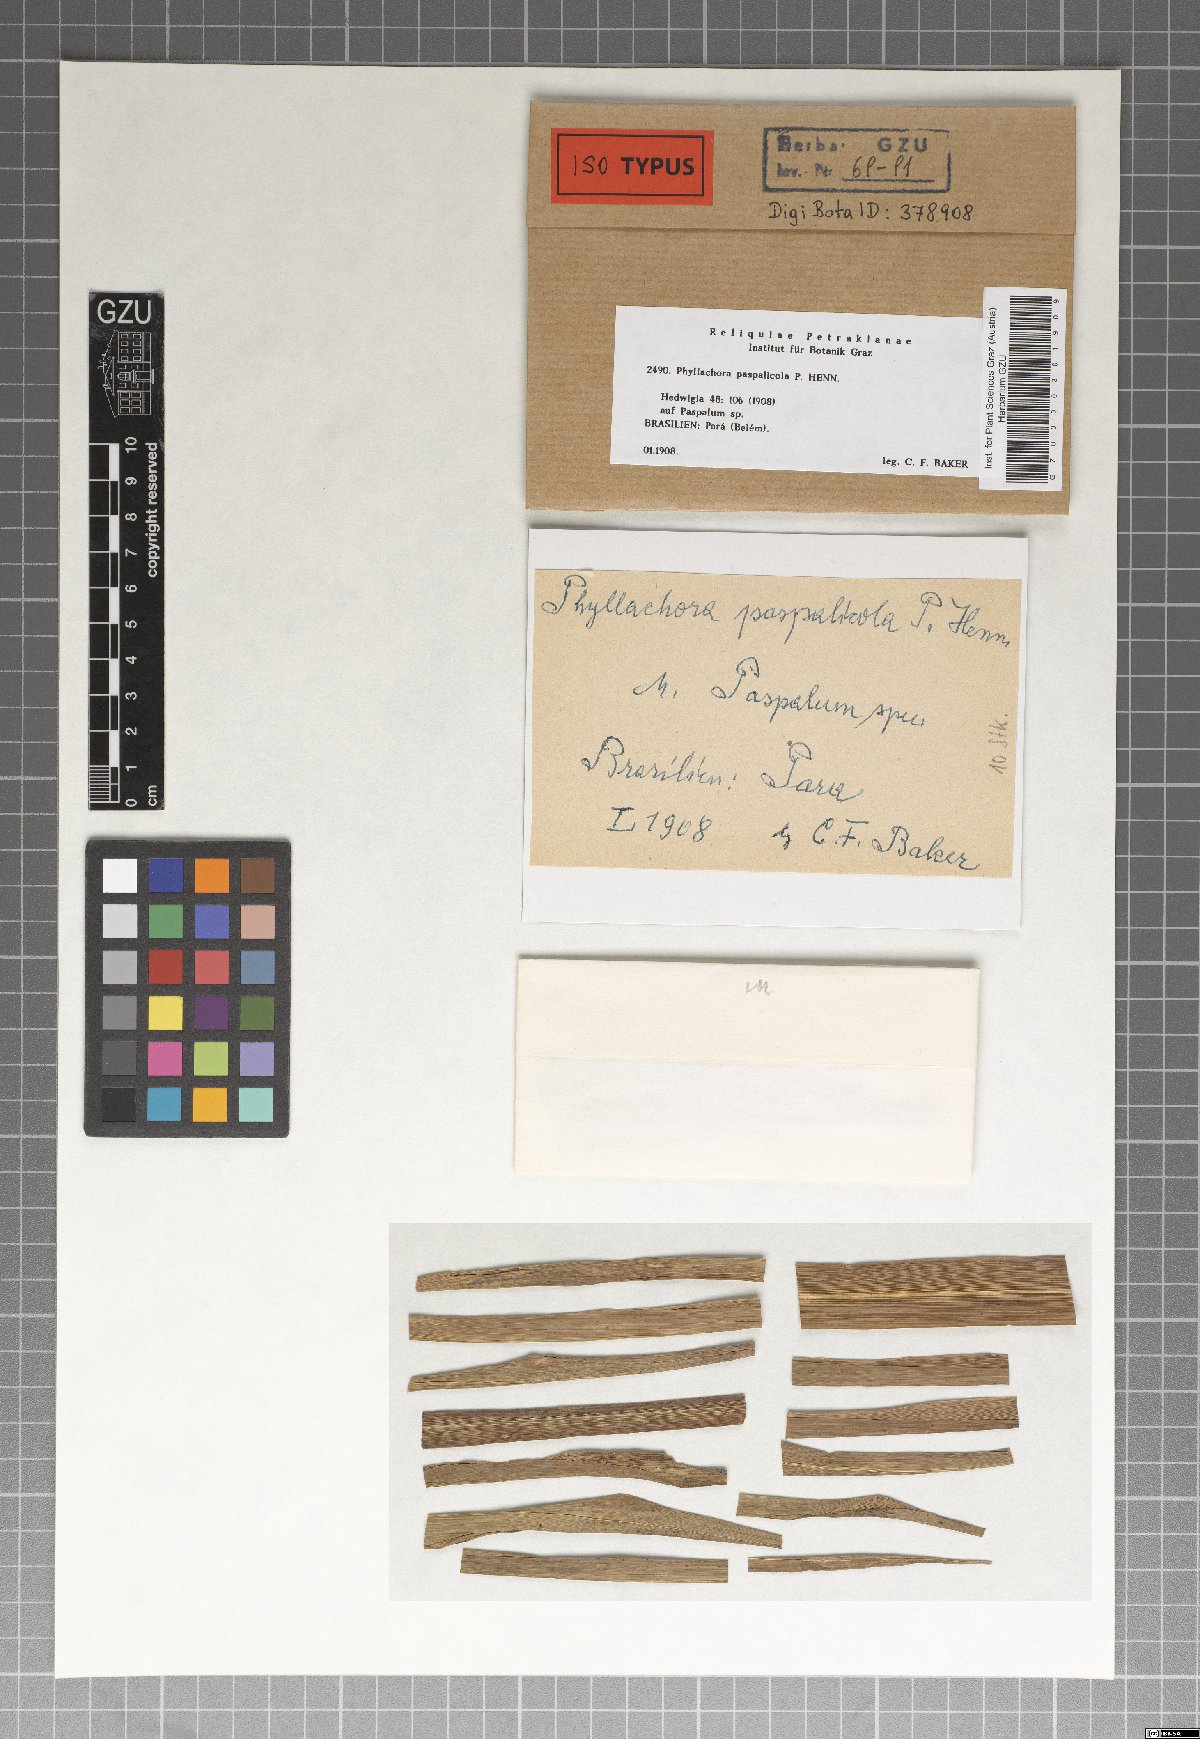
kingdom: Fungi
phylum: Ascomycota
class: Sordariomycetes
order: Phyllachorales
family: Phyllachoraceae
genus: Phyllachora
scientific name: Phyllachora paspalicola
